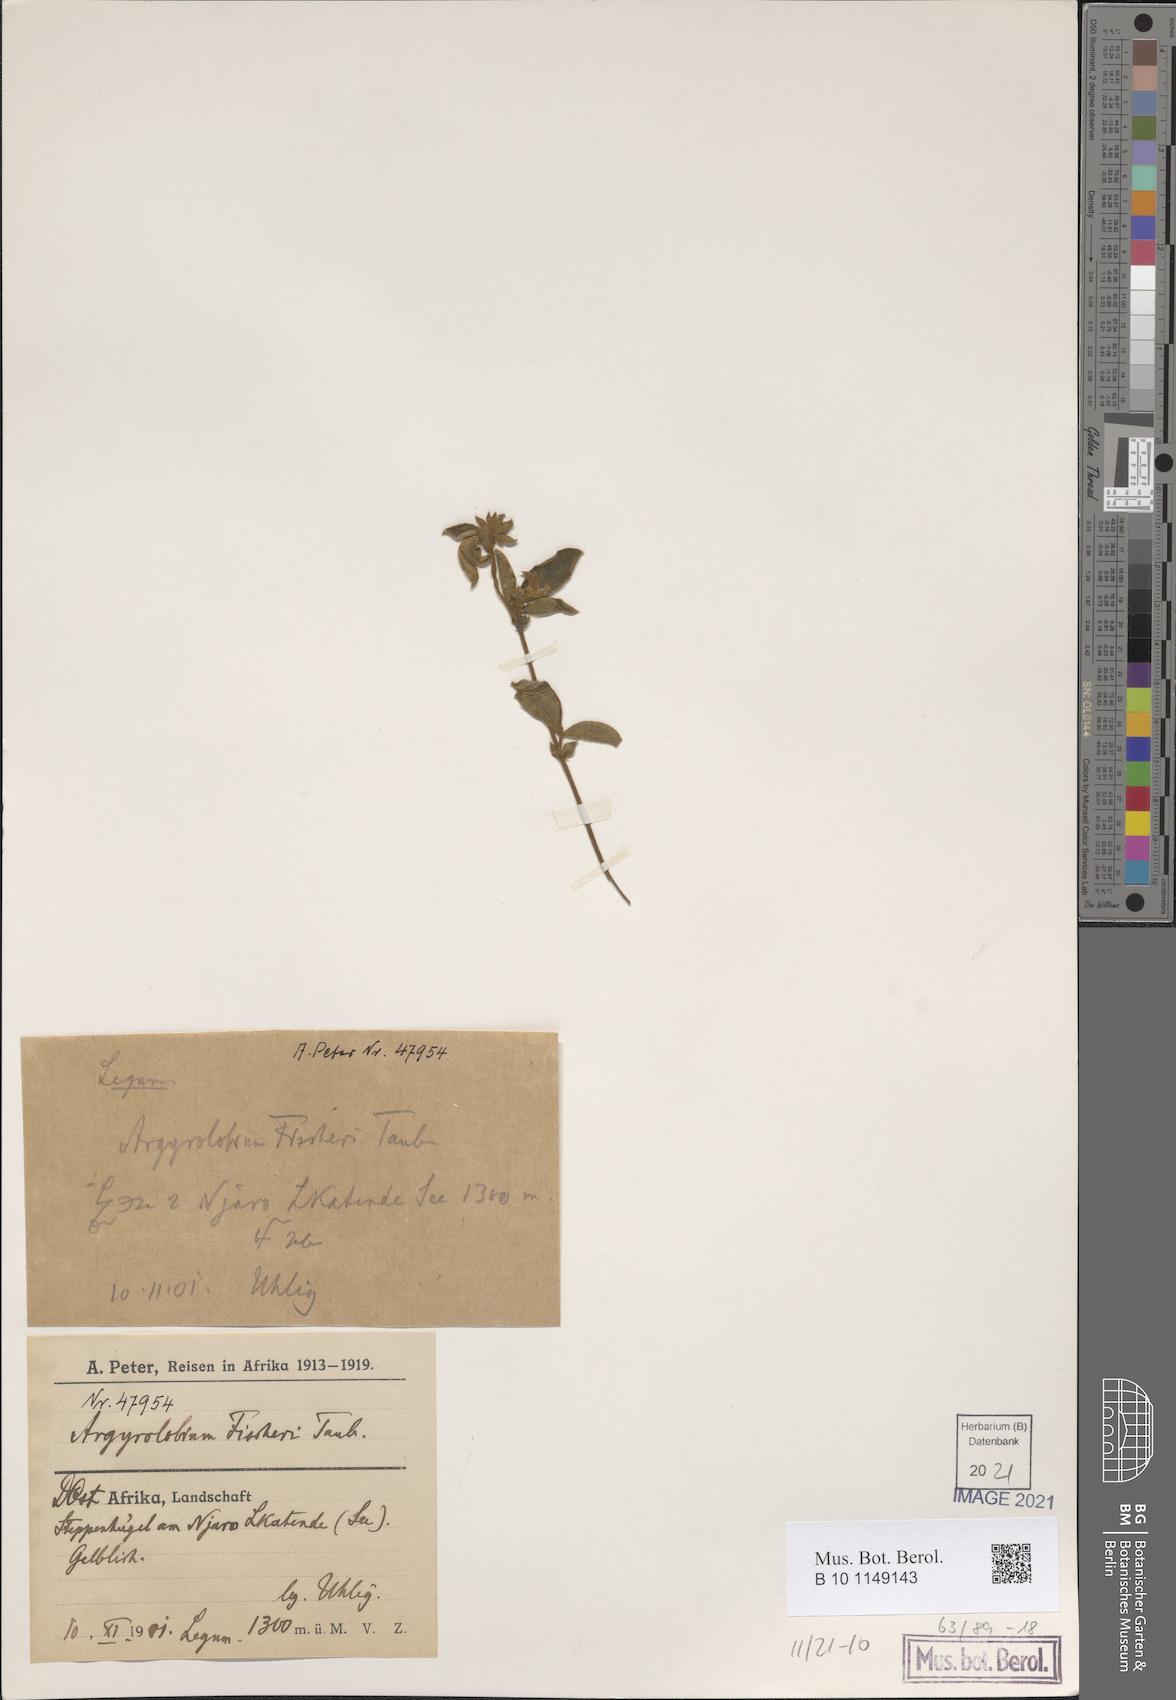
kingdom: Plantae
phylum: Tracheophyta
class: Magnoliopsida
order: Fabales
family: Fabaceae
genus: Argyrolobium
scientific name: Argyrolobium fischeri
